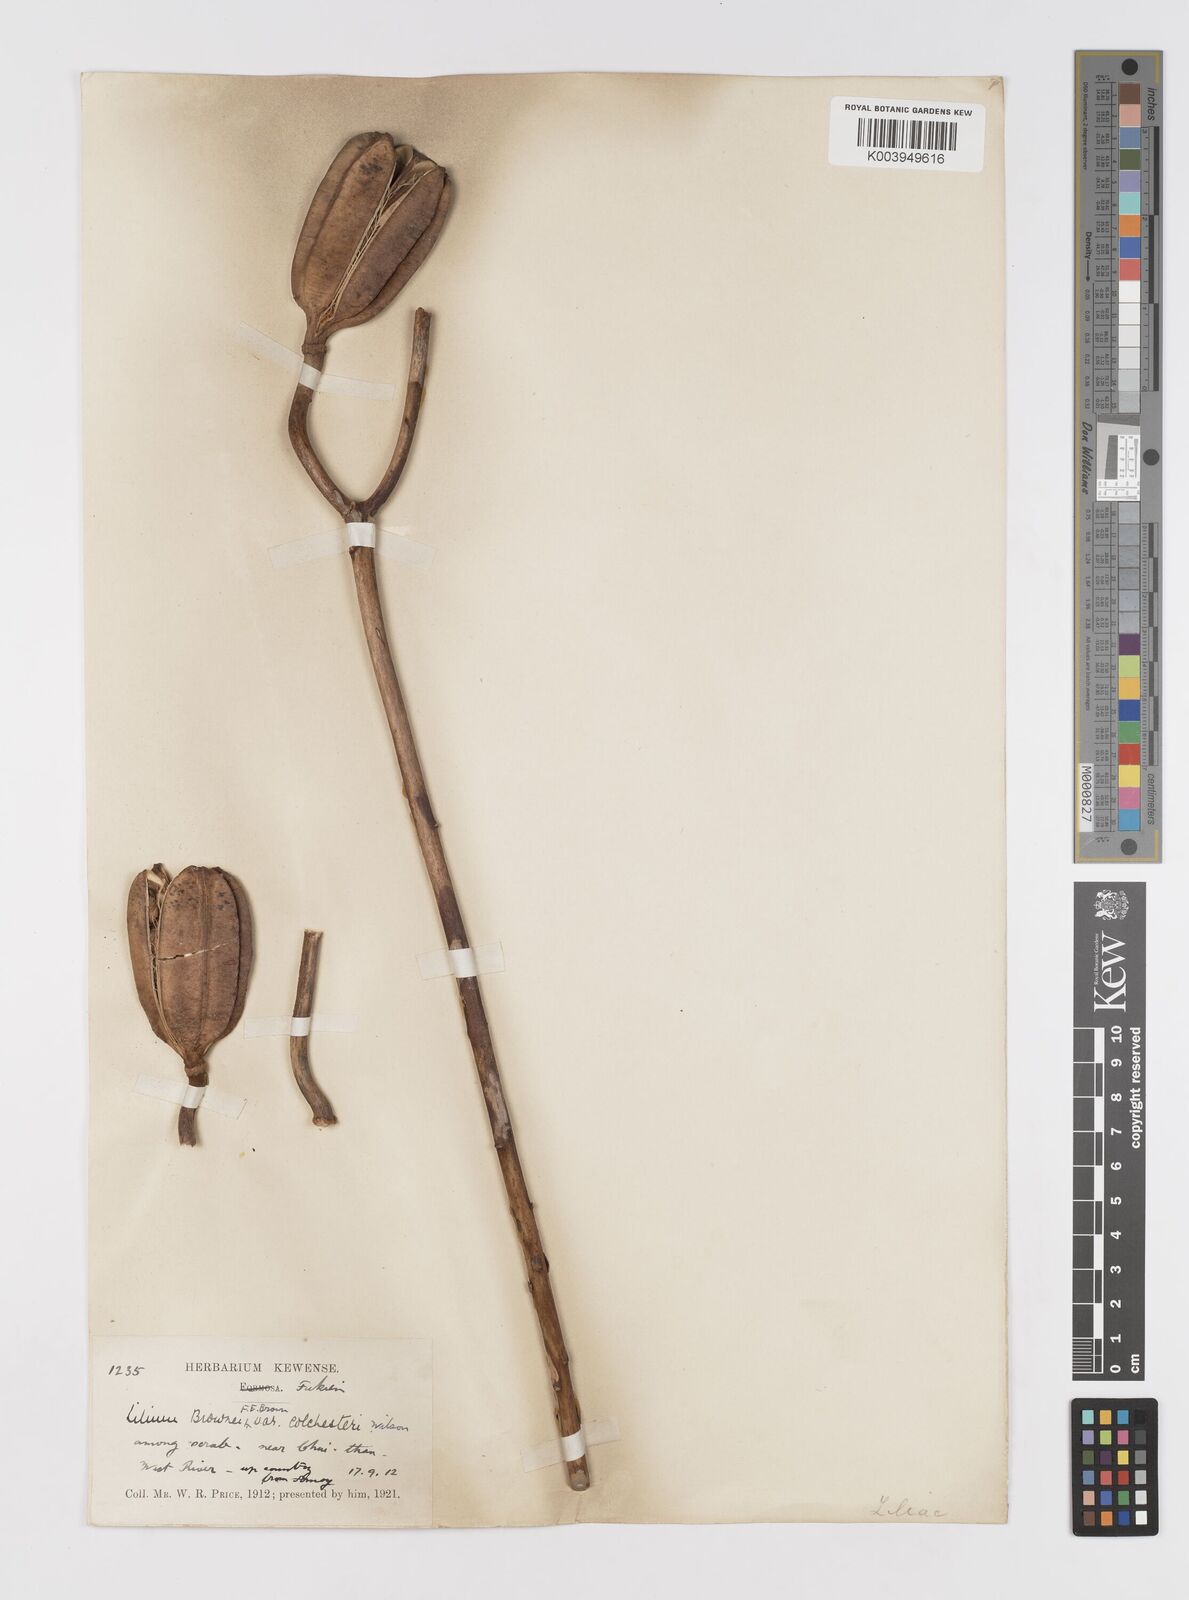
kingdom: Plantae
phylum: Tracheophyta
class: Liliopsida
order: Liliales
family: Liliaceae
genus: Lilium
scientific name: Lilium
